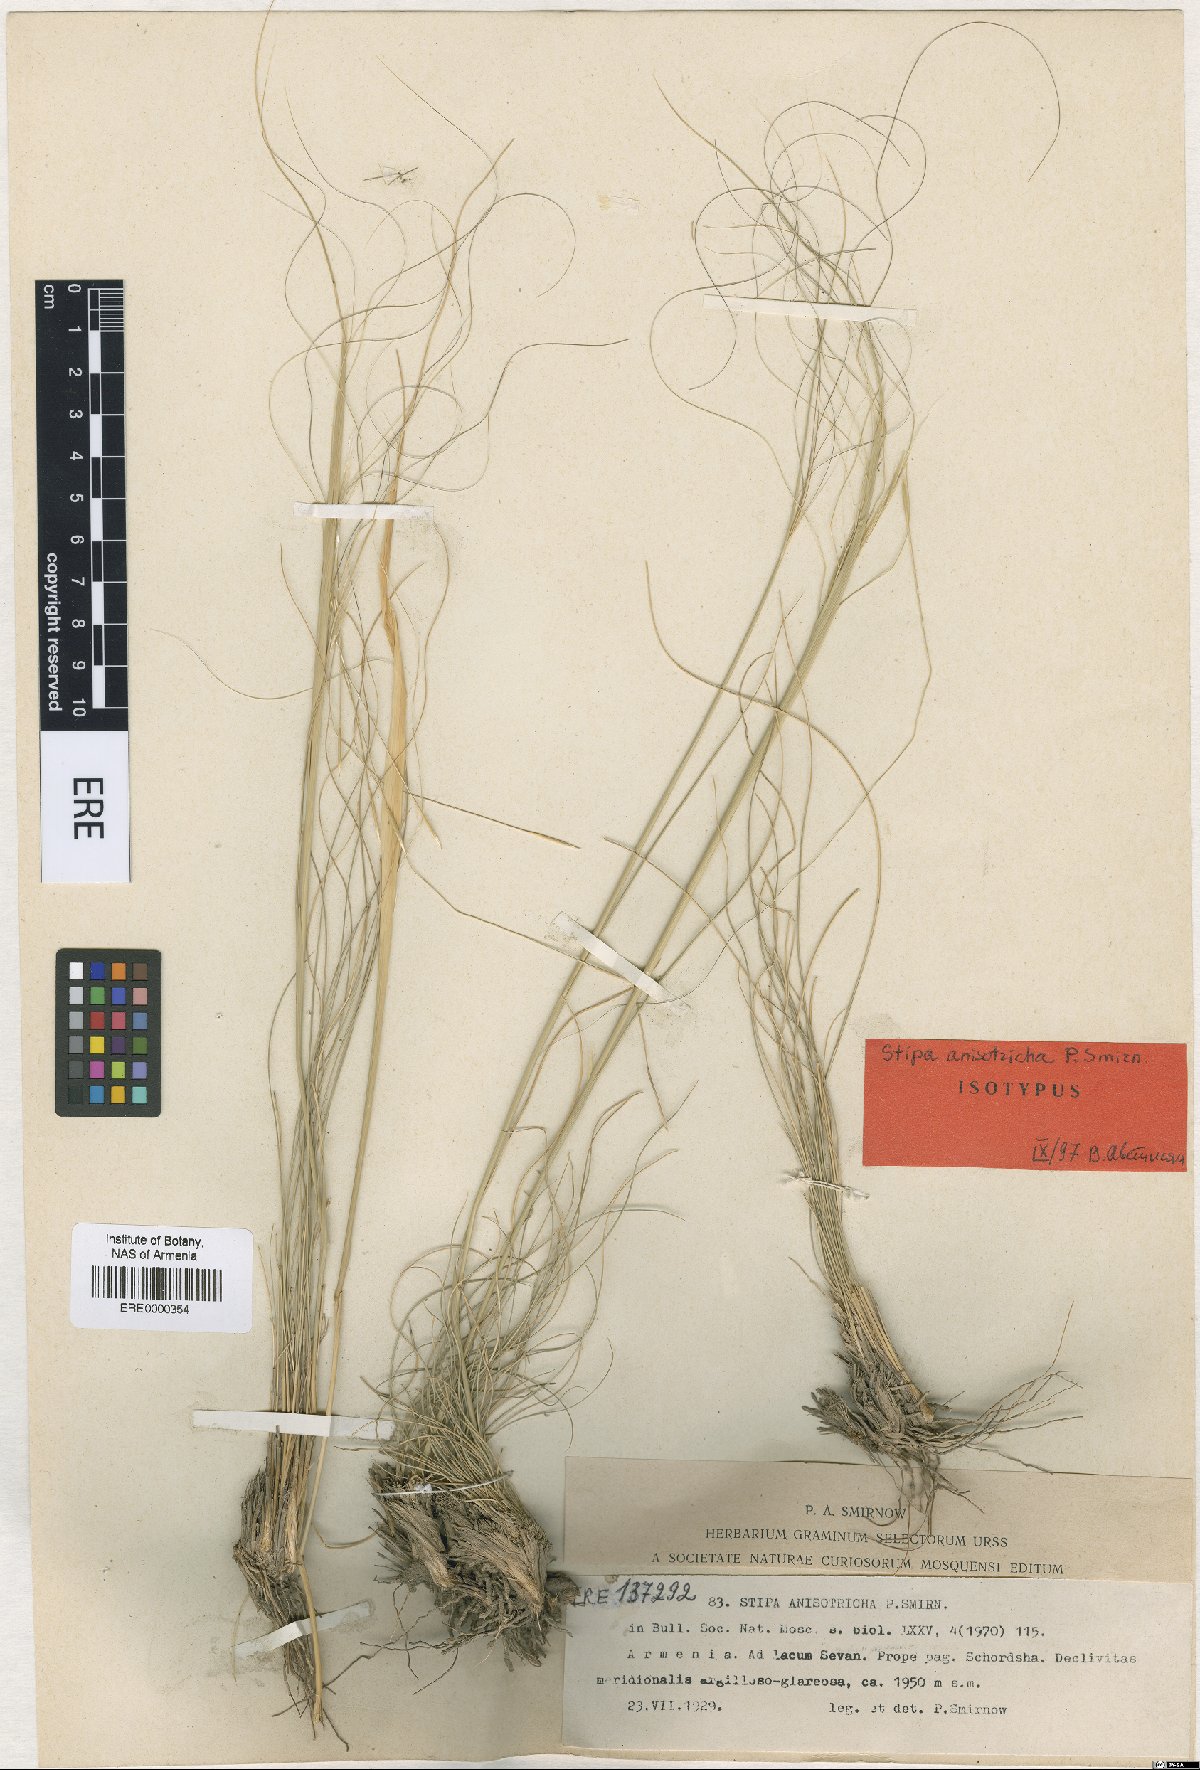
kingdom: Plantae
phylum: Tracheophyta
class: Liliopsida
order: Poales
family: Poaceae
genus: Stipa
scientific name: Stipa sareptana
